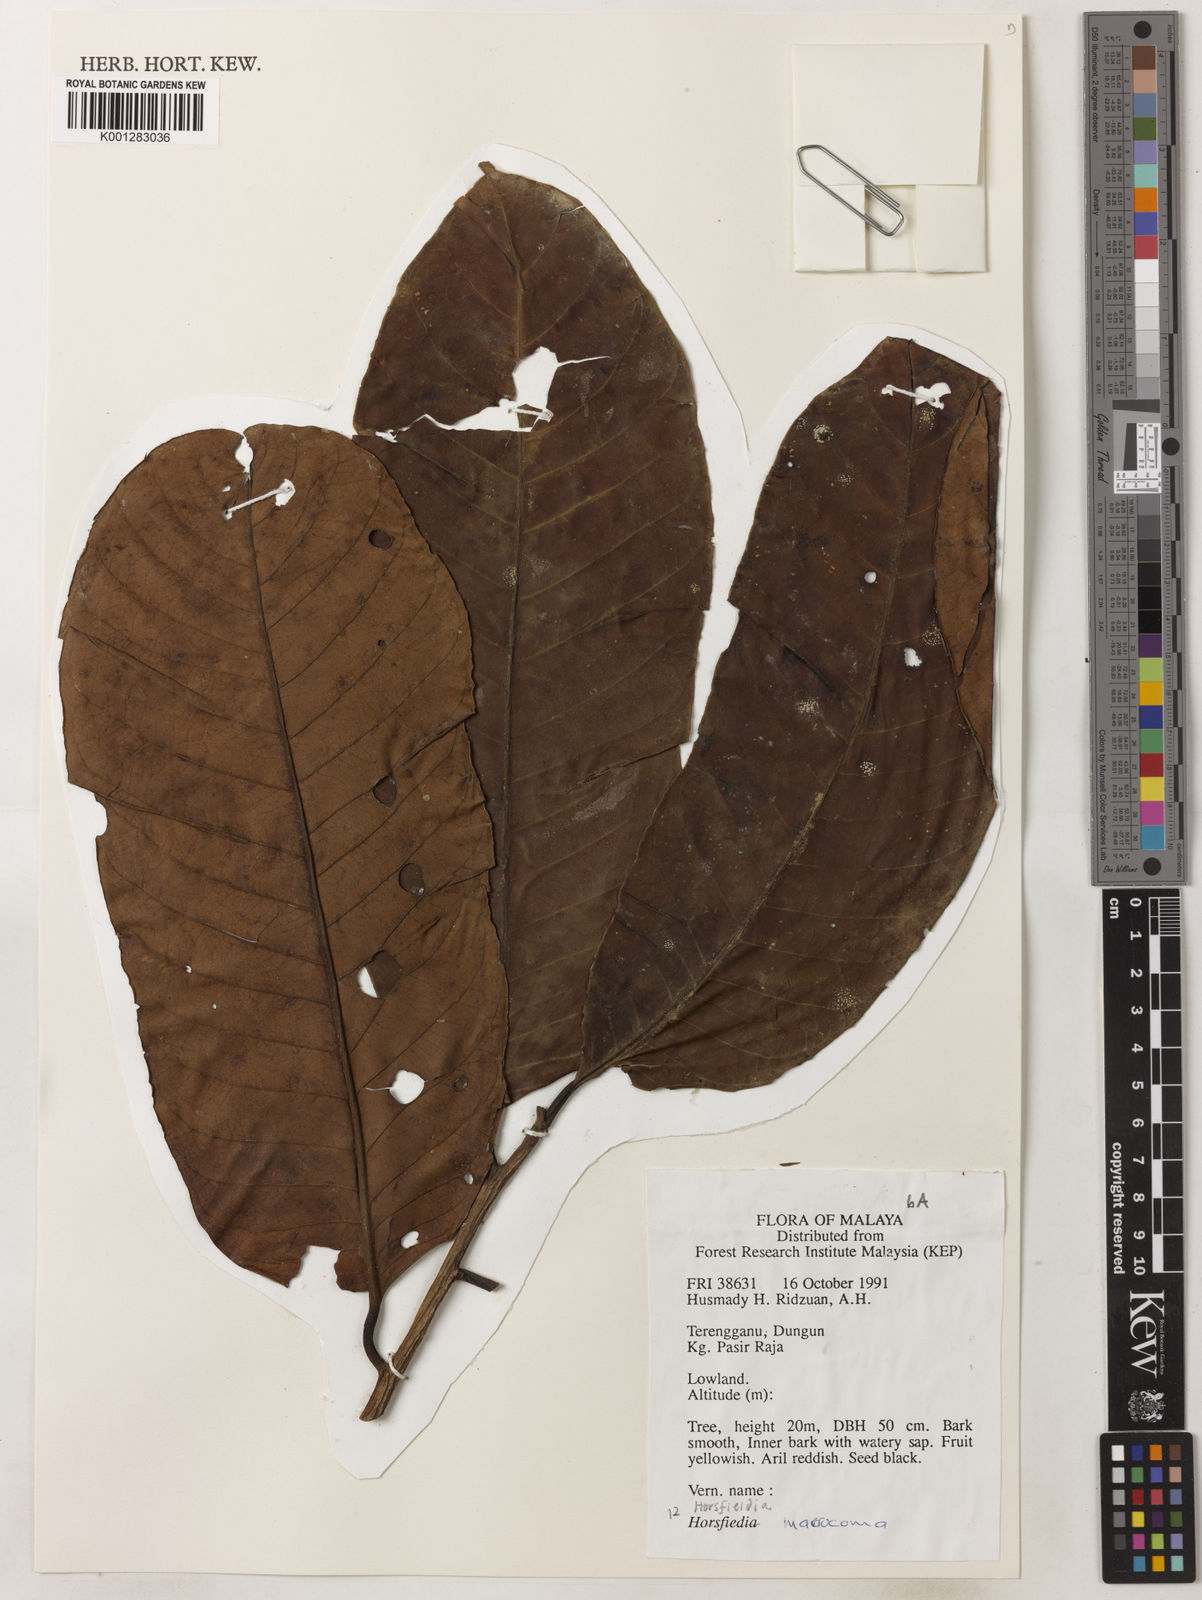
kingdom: Plantae
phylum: Tracheophyta
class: Magnoliopsida
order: Magnoliales
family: Myristicaceae
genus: Endocomia
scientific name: Endocomia macrocoma
